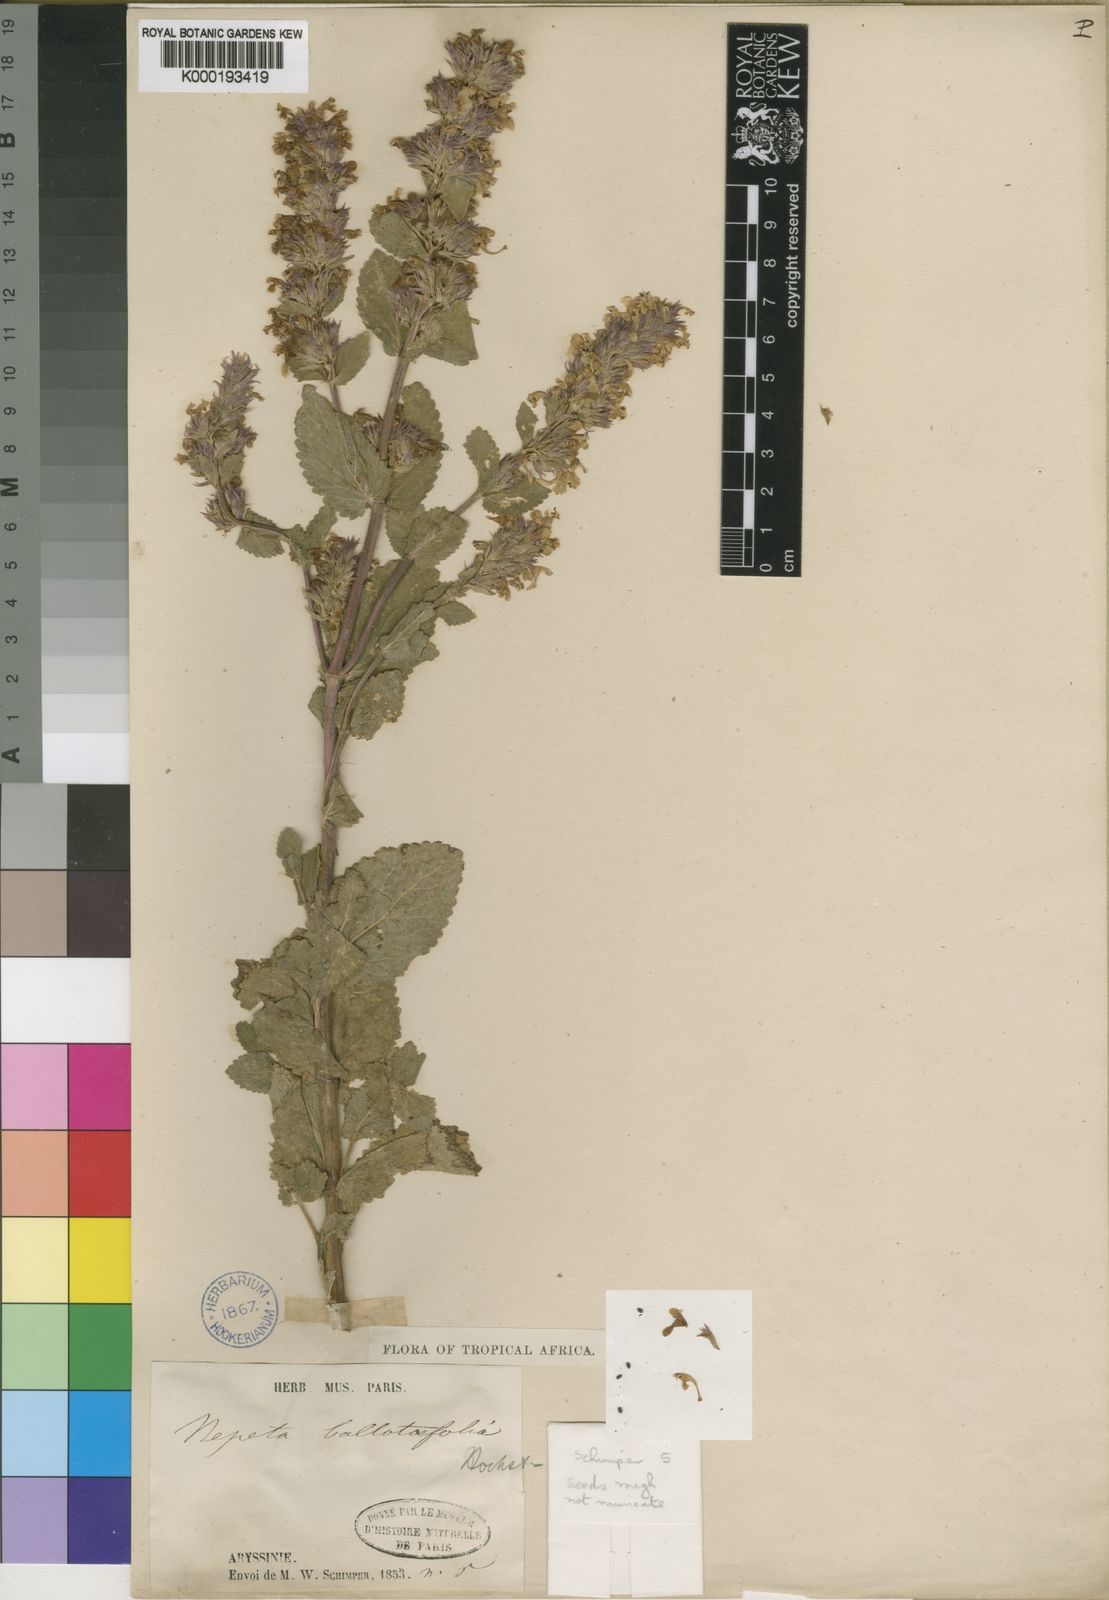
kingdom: Plantae
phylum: Tracheophyta
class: Magnoliopsida
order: Lamiales
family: Lamiaceae
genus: Nepeta
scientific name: Nepeta azurea
